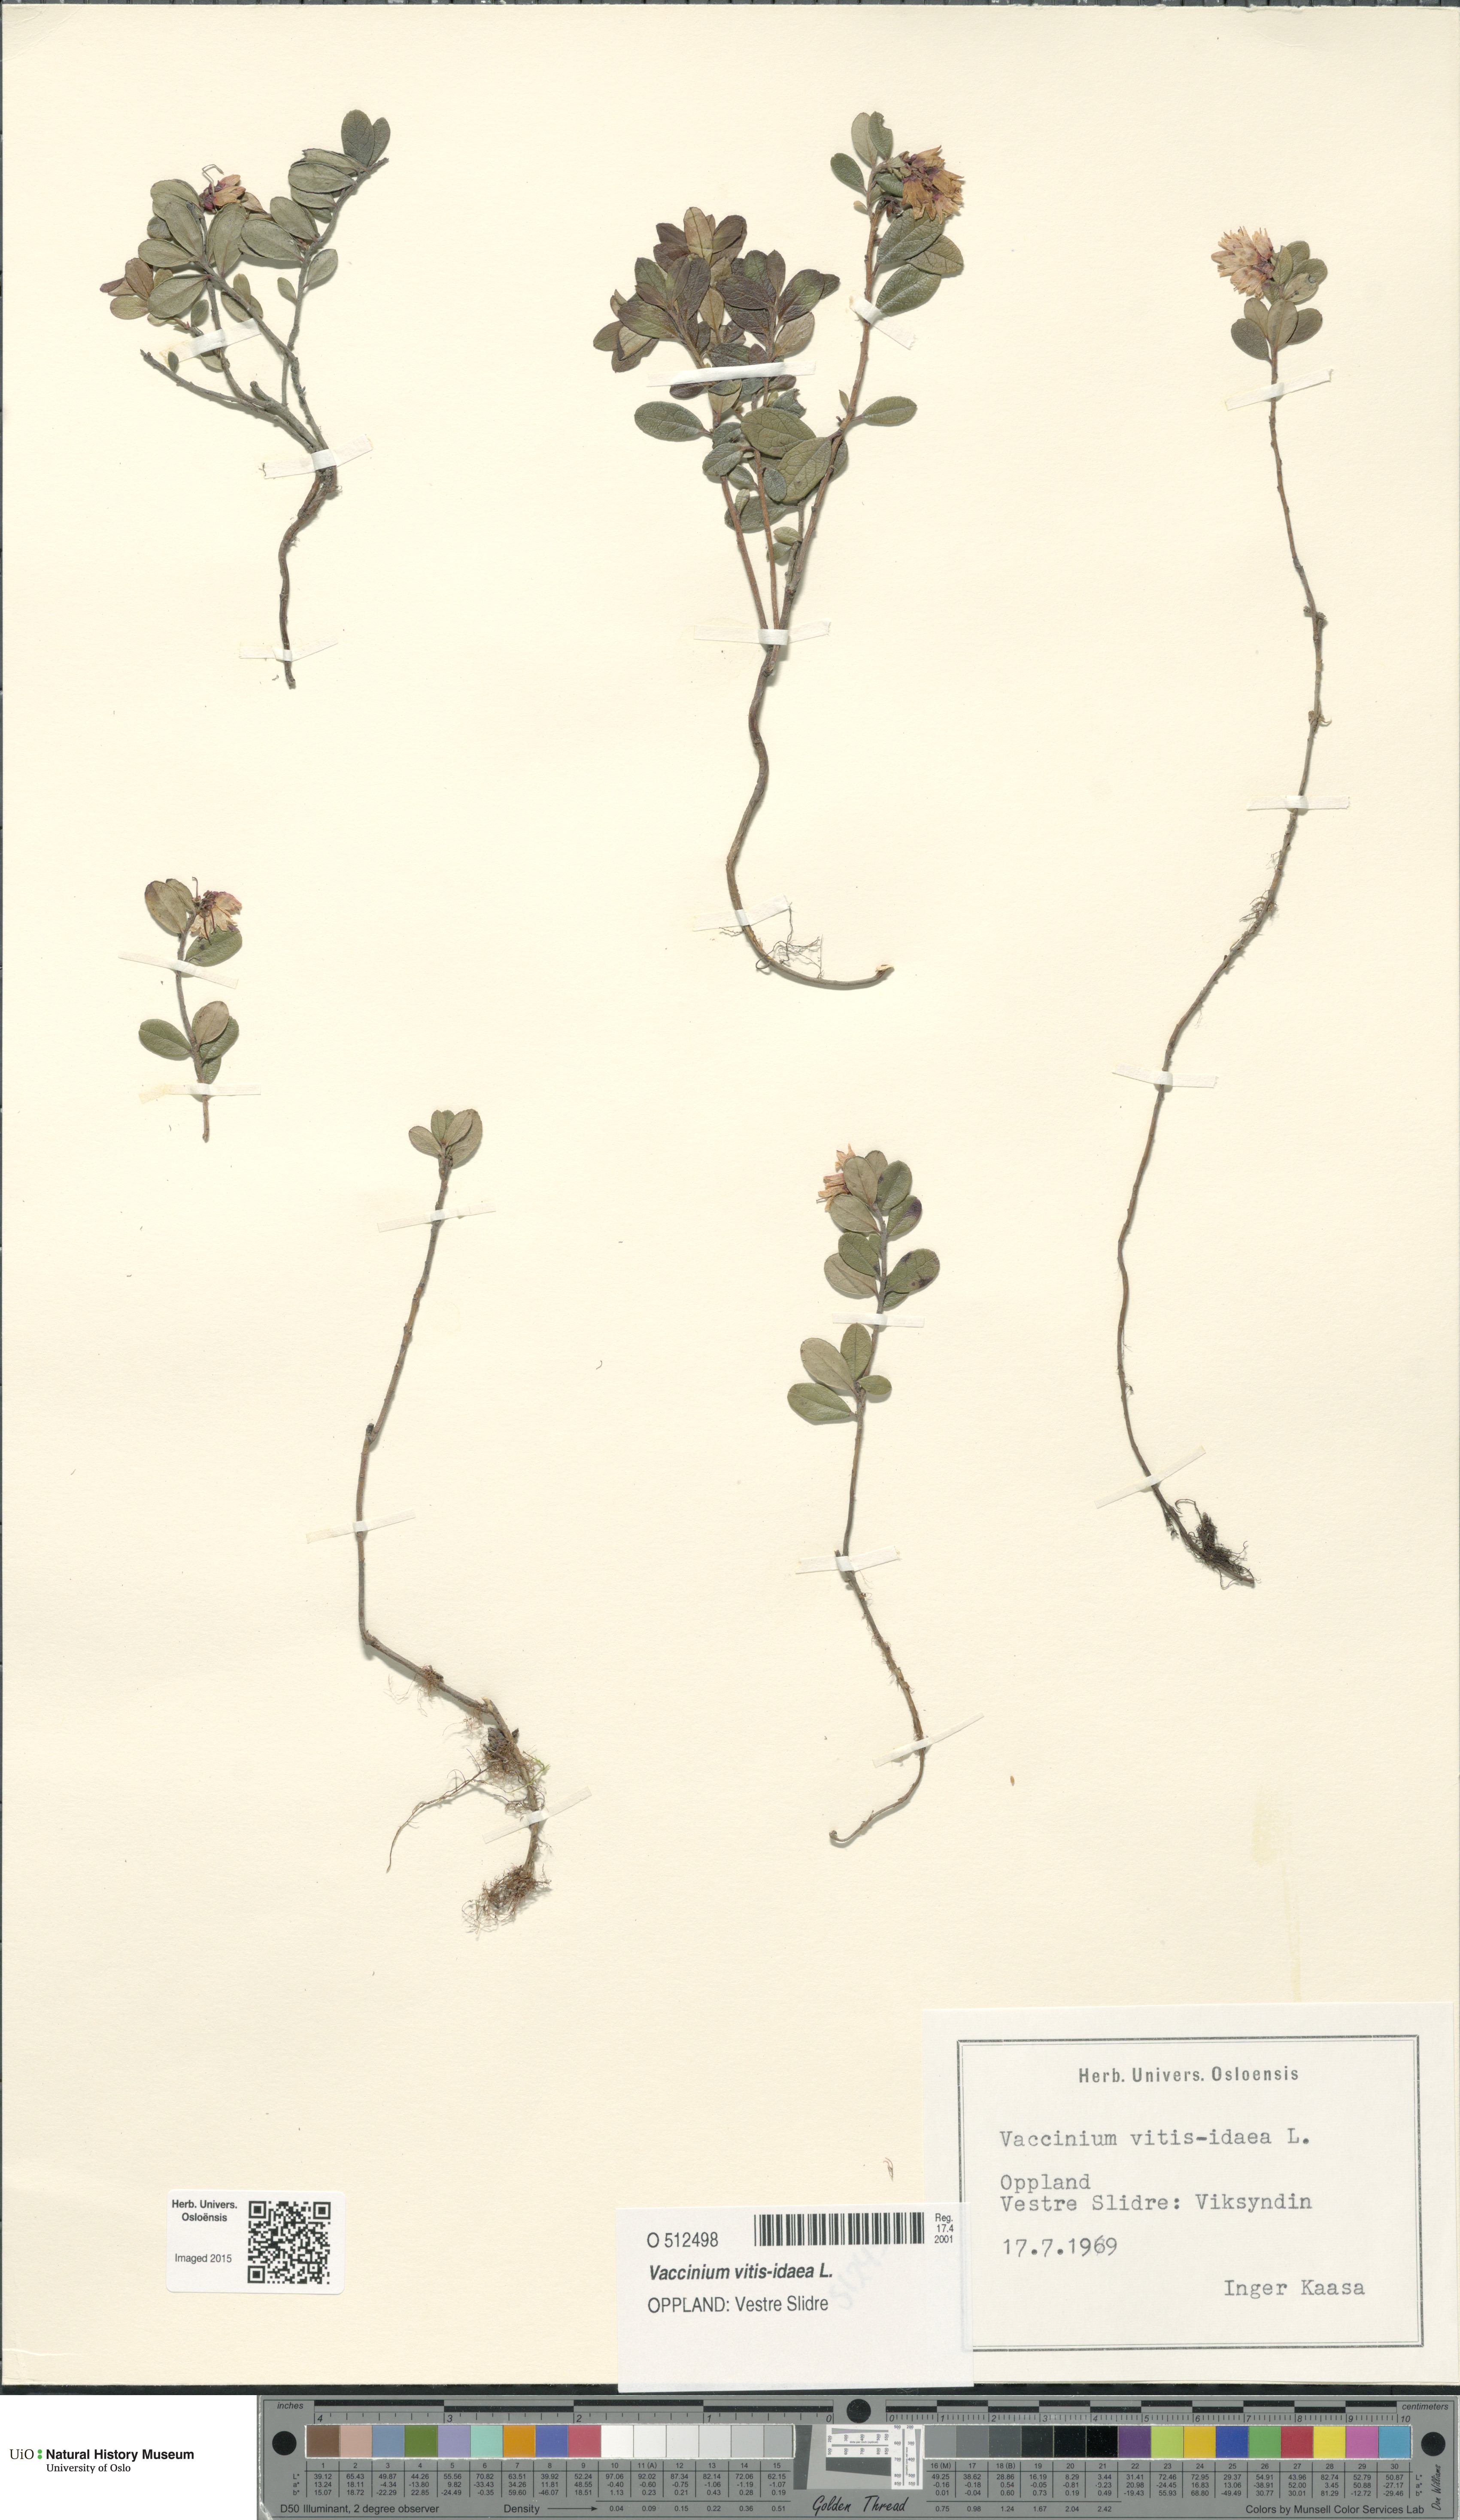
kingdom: Plantae
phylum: Tracheophyta
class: Magnoliopsida
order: Ericales
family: Ericaceae
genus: Vaccinium
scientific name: Vaccinium vitis-idaea
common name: Cowberry
